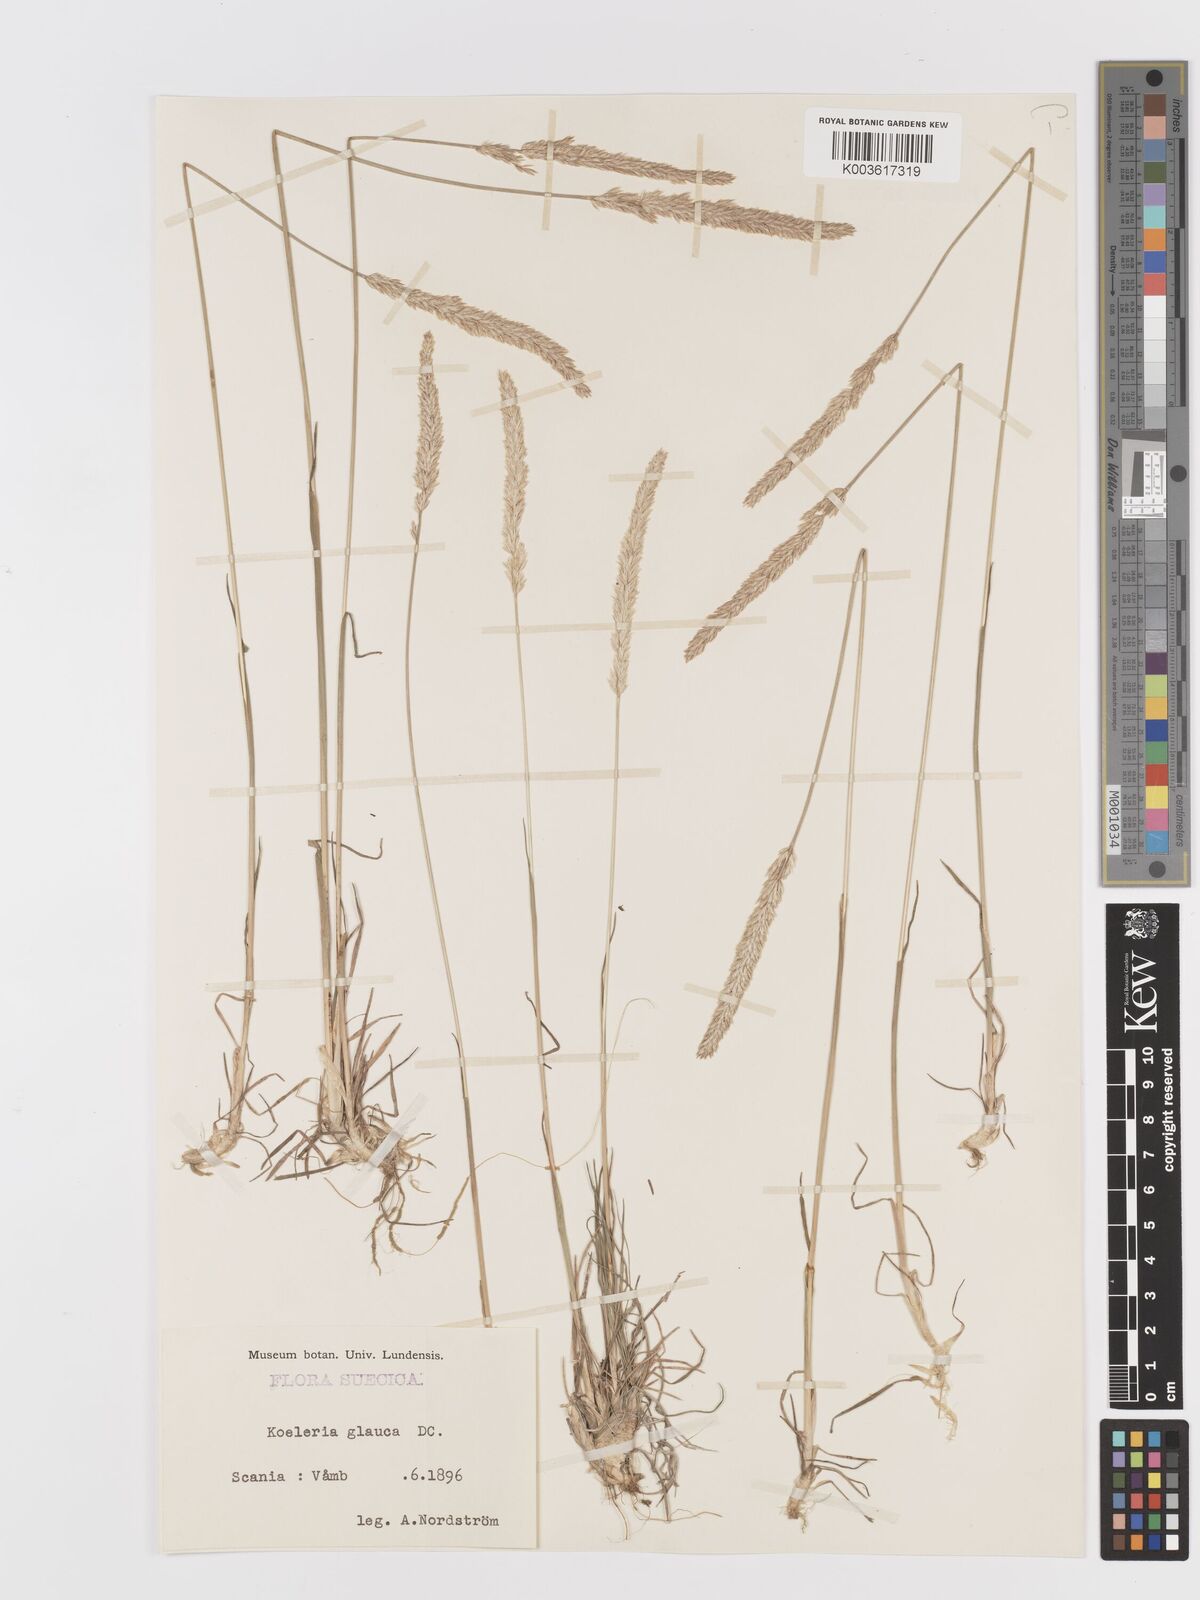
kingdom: Plantae
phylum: Tracheophyta
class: Liliopsida
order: Poales
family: Poaceae
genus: Koeleria
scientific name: Koeleria glauca
